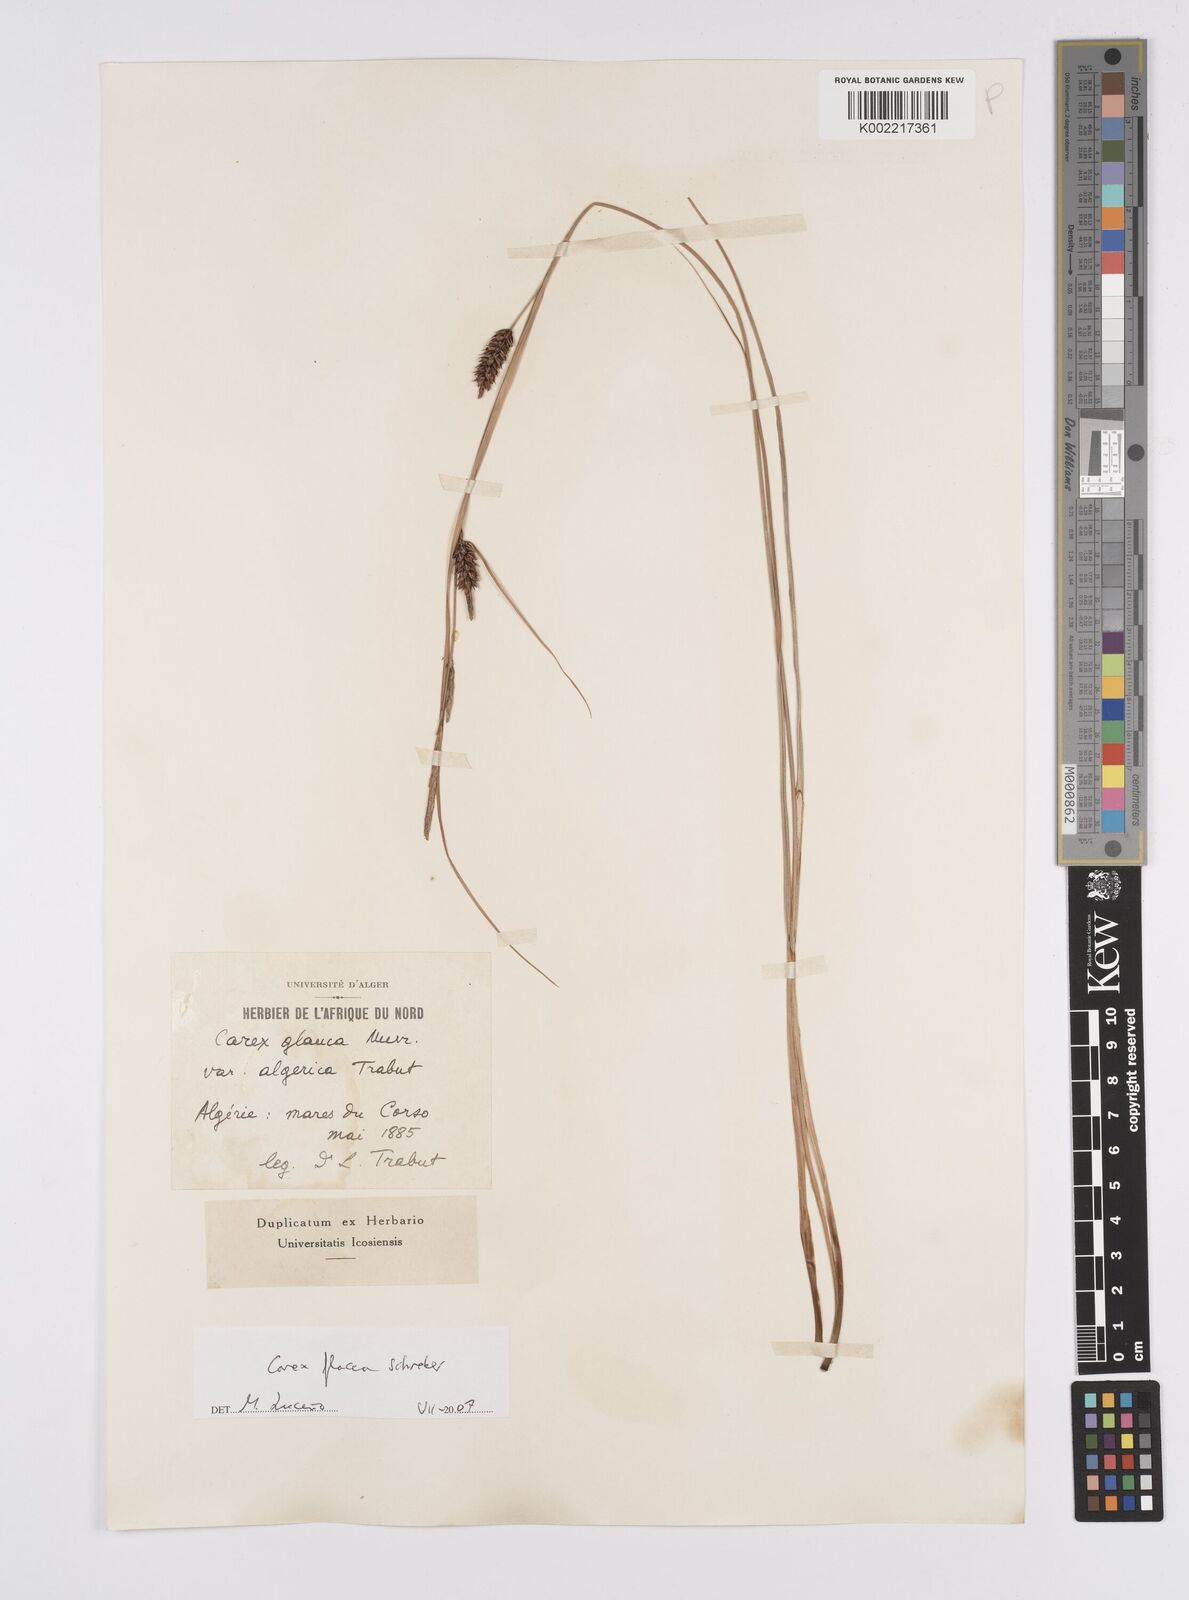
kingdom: Plantae
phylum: Tracheophyta
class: Liliopsida
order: Poales
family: Cyperaceae
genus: Carex
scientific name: Carex flacca
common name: Glaucous sedge
